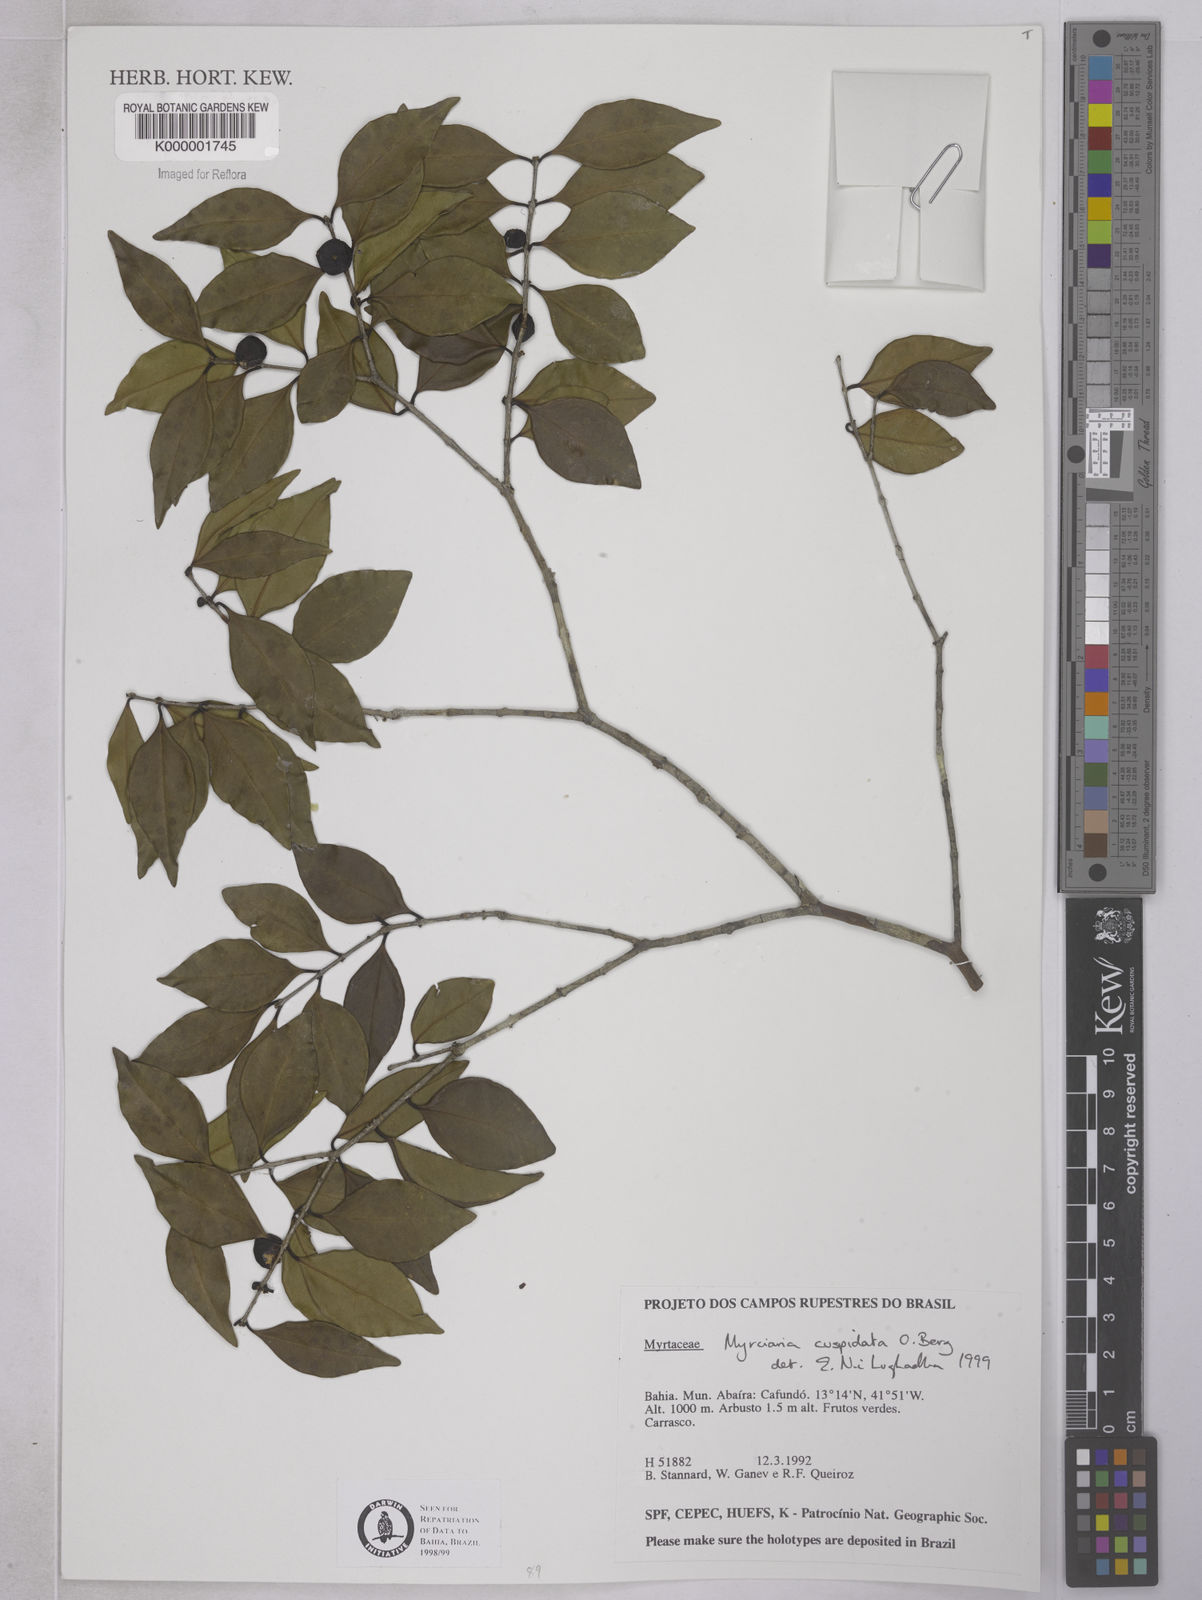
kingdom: Plantae
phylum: Tracheophyta
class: Magnoliopsida
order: Myrtales
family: Myrtaceae
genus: Myrciaria
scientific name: Myrciaria cuspidata
